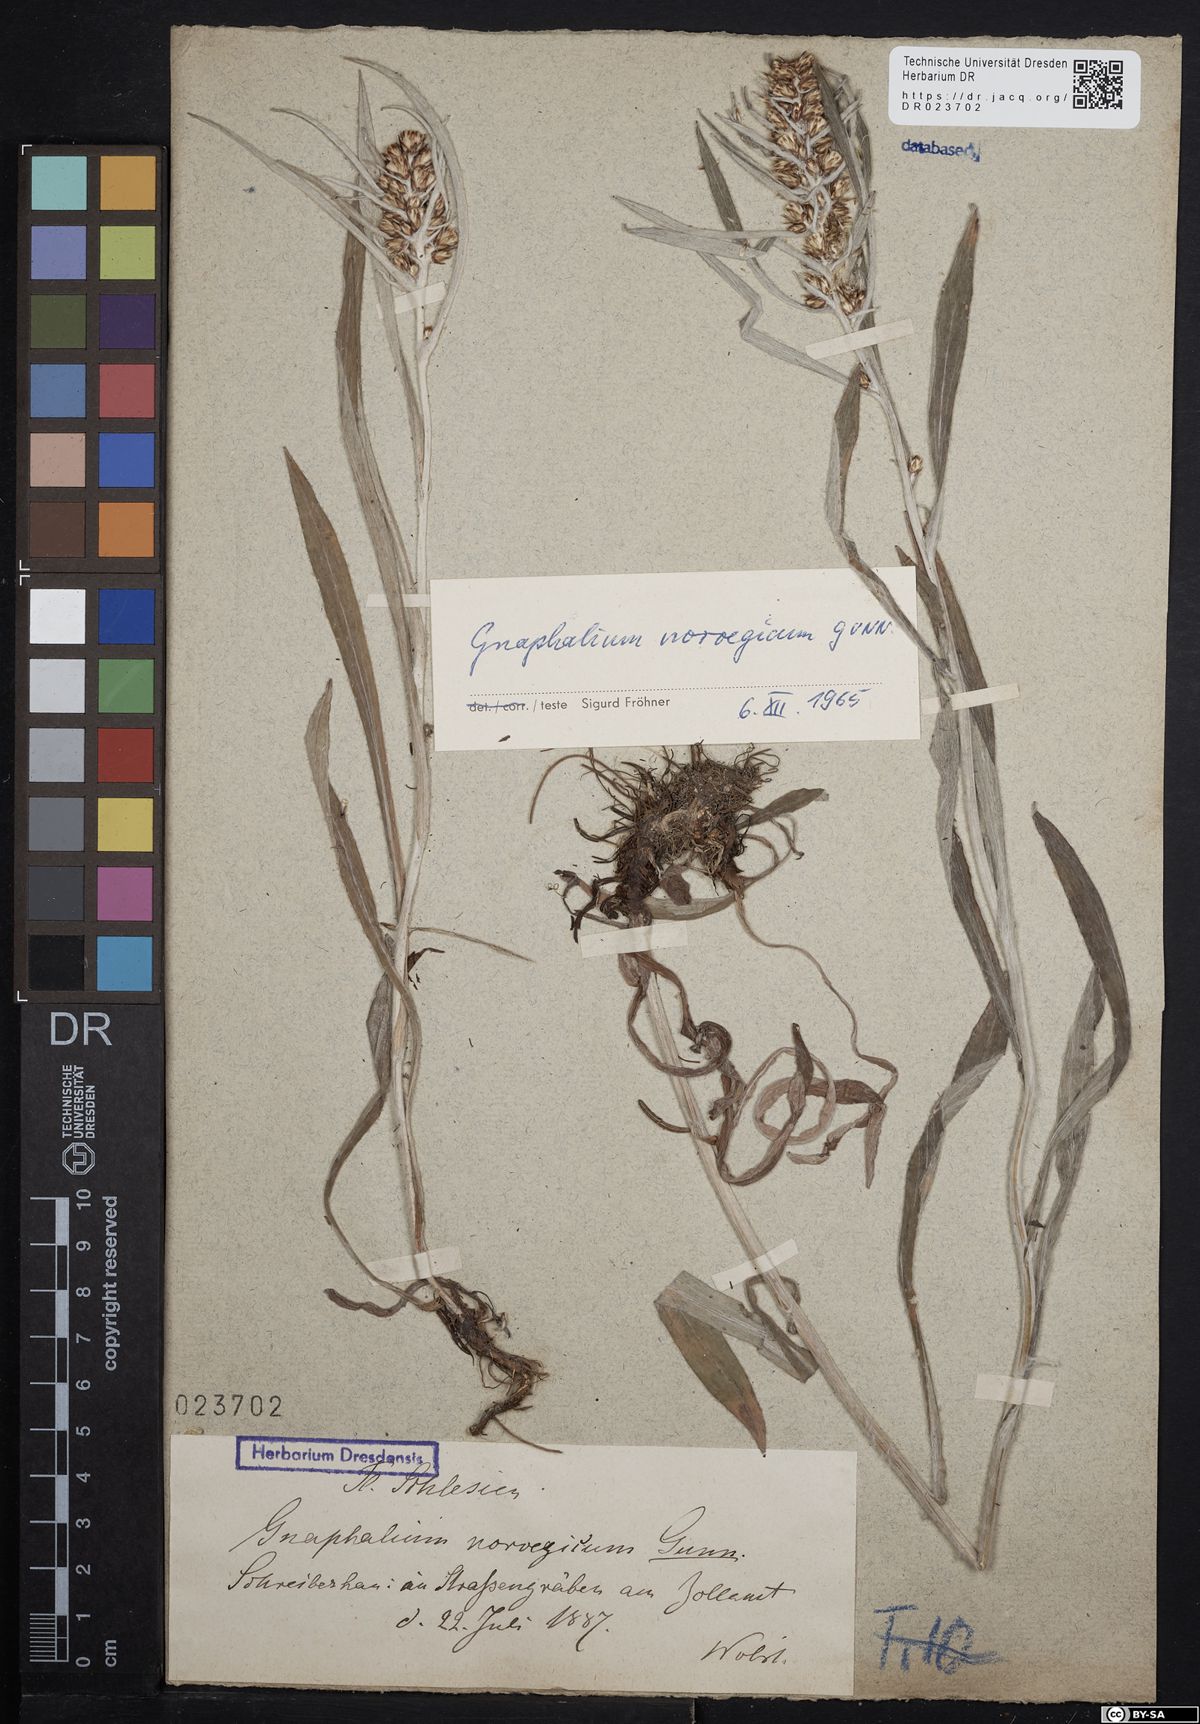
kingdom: Plantae
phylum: Tracheophyta
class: Magnoliopsida
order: Asterales
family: Asteraceae
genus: Omalotheca
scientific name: Omalotheca norvegica
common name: Norwegian arctic-cudweed
